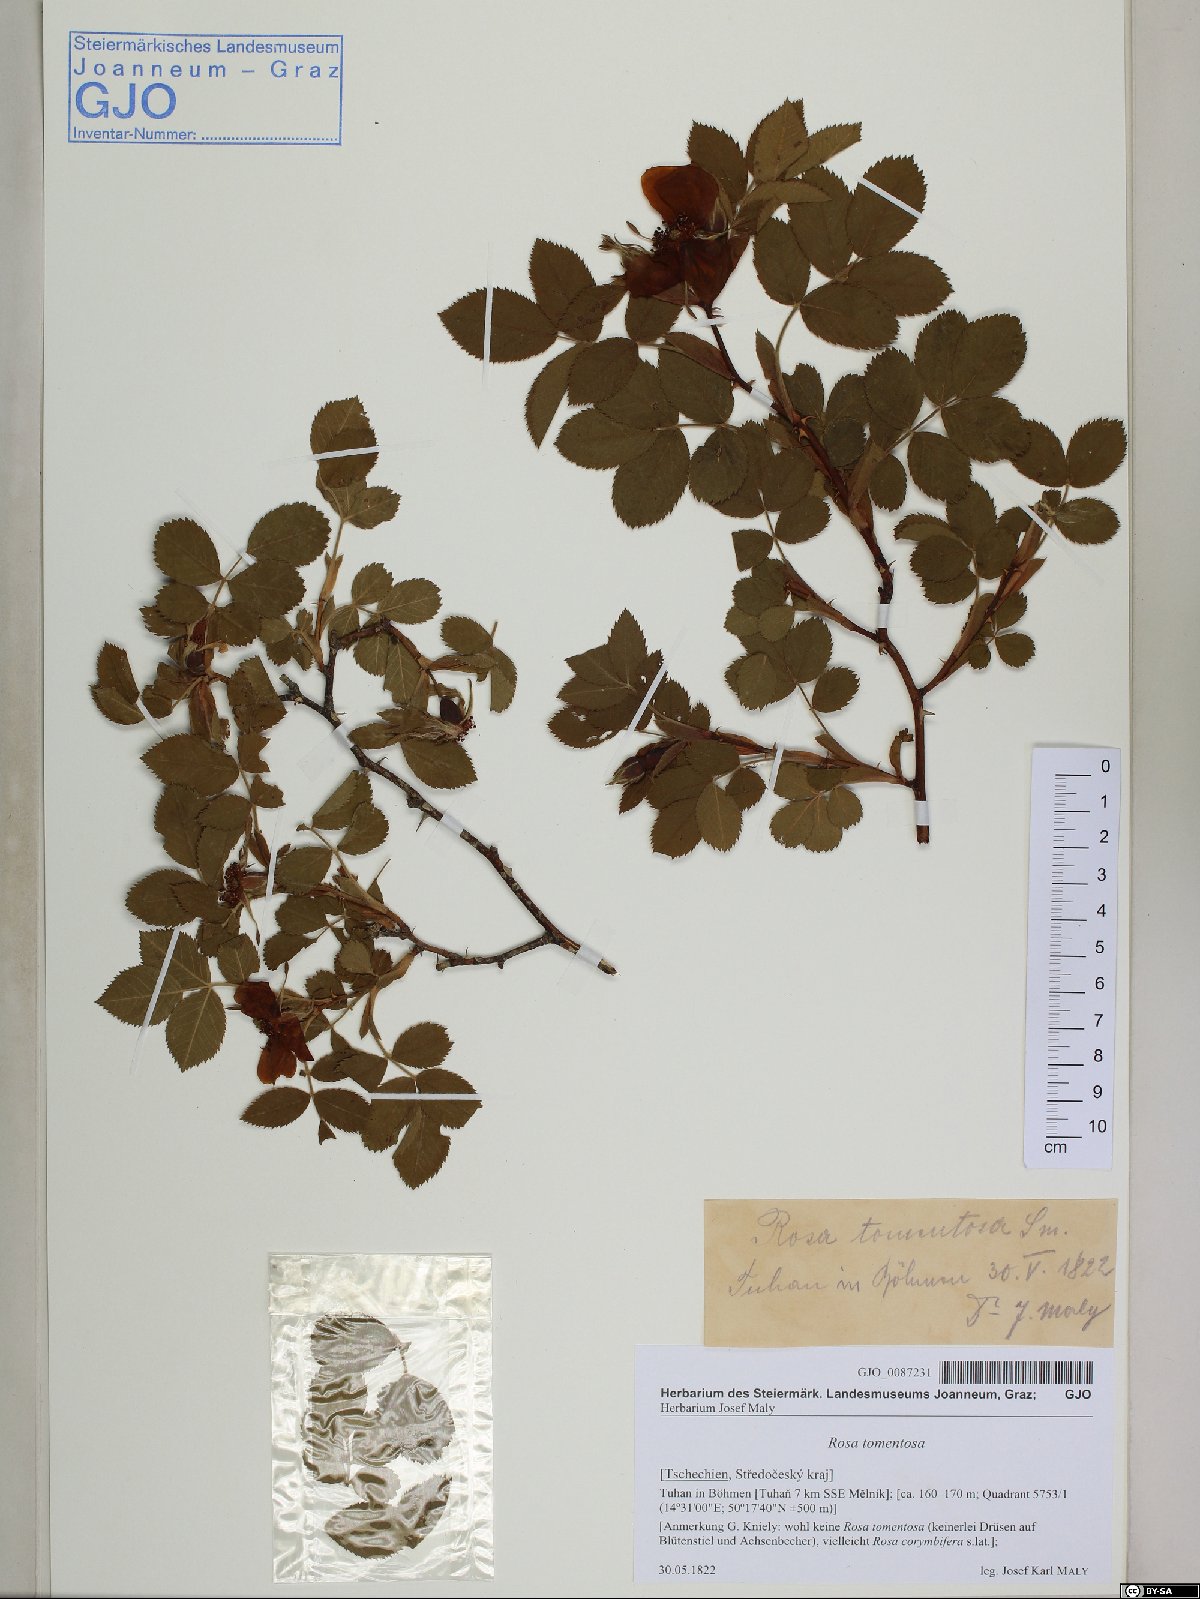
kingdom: Plantae
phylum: Tracheophyta
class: Magnoliopsida
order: Rosales
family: Rosaceae
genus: Rosa
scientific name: Rosa tomentosa
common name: Downy rose
